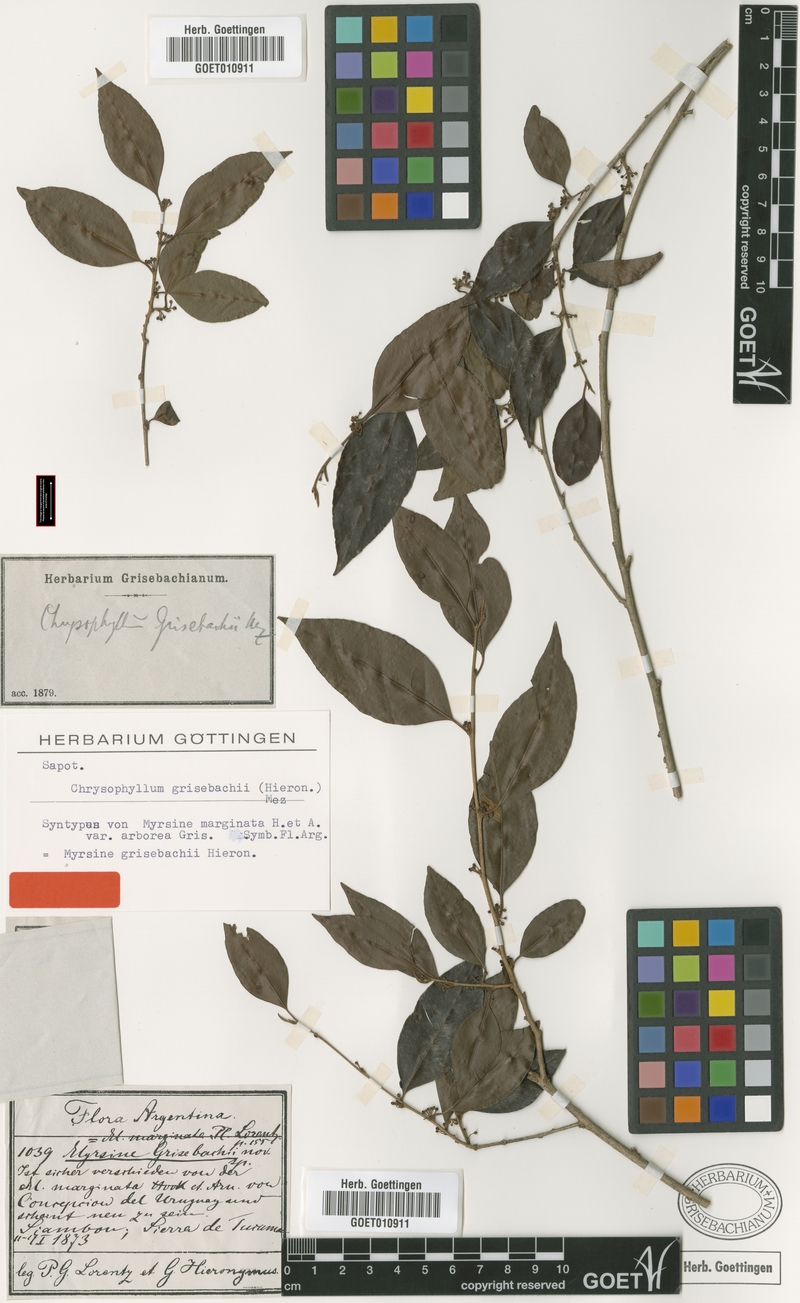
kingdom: Plantae
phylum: Tracheophyta
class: Magnoliopsida
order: Ericales
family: Sapotaceae
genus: Chrysophyllum
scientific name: Chrysophyllum marginatum
